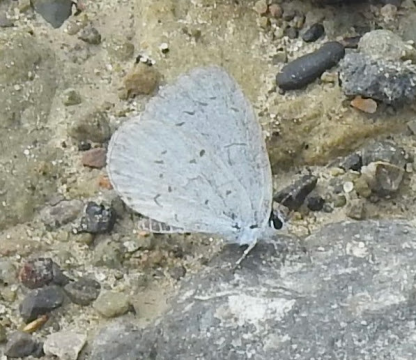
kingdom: Animalia
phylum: Arthropoda
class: Insecta
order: Lepidoptera
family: Lycaenidae
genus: Cyaniris
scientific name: Cyaniris neglecta
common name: Summer Azure
